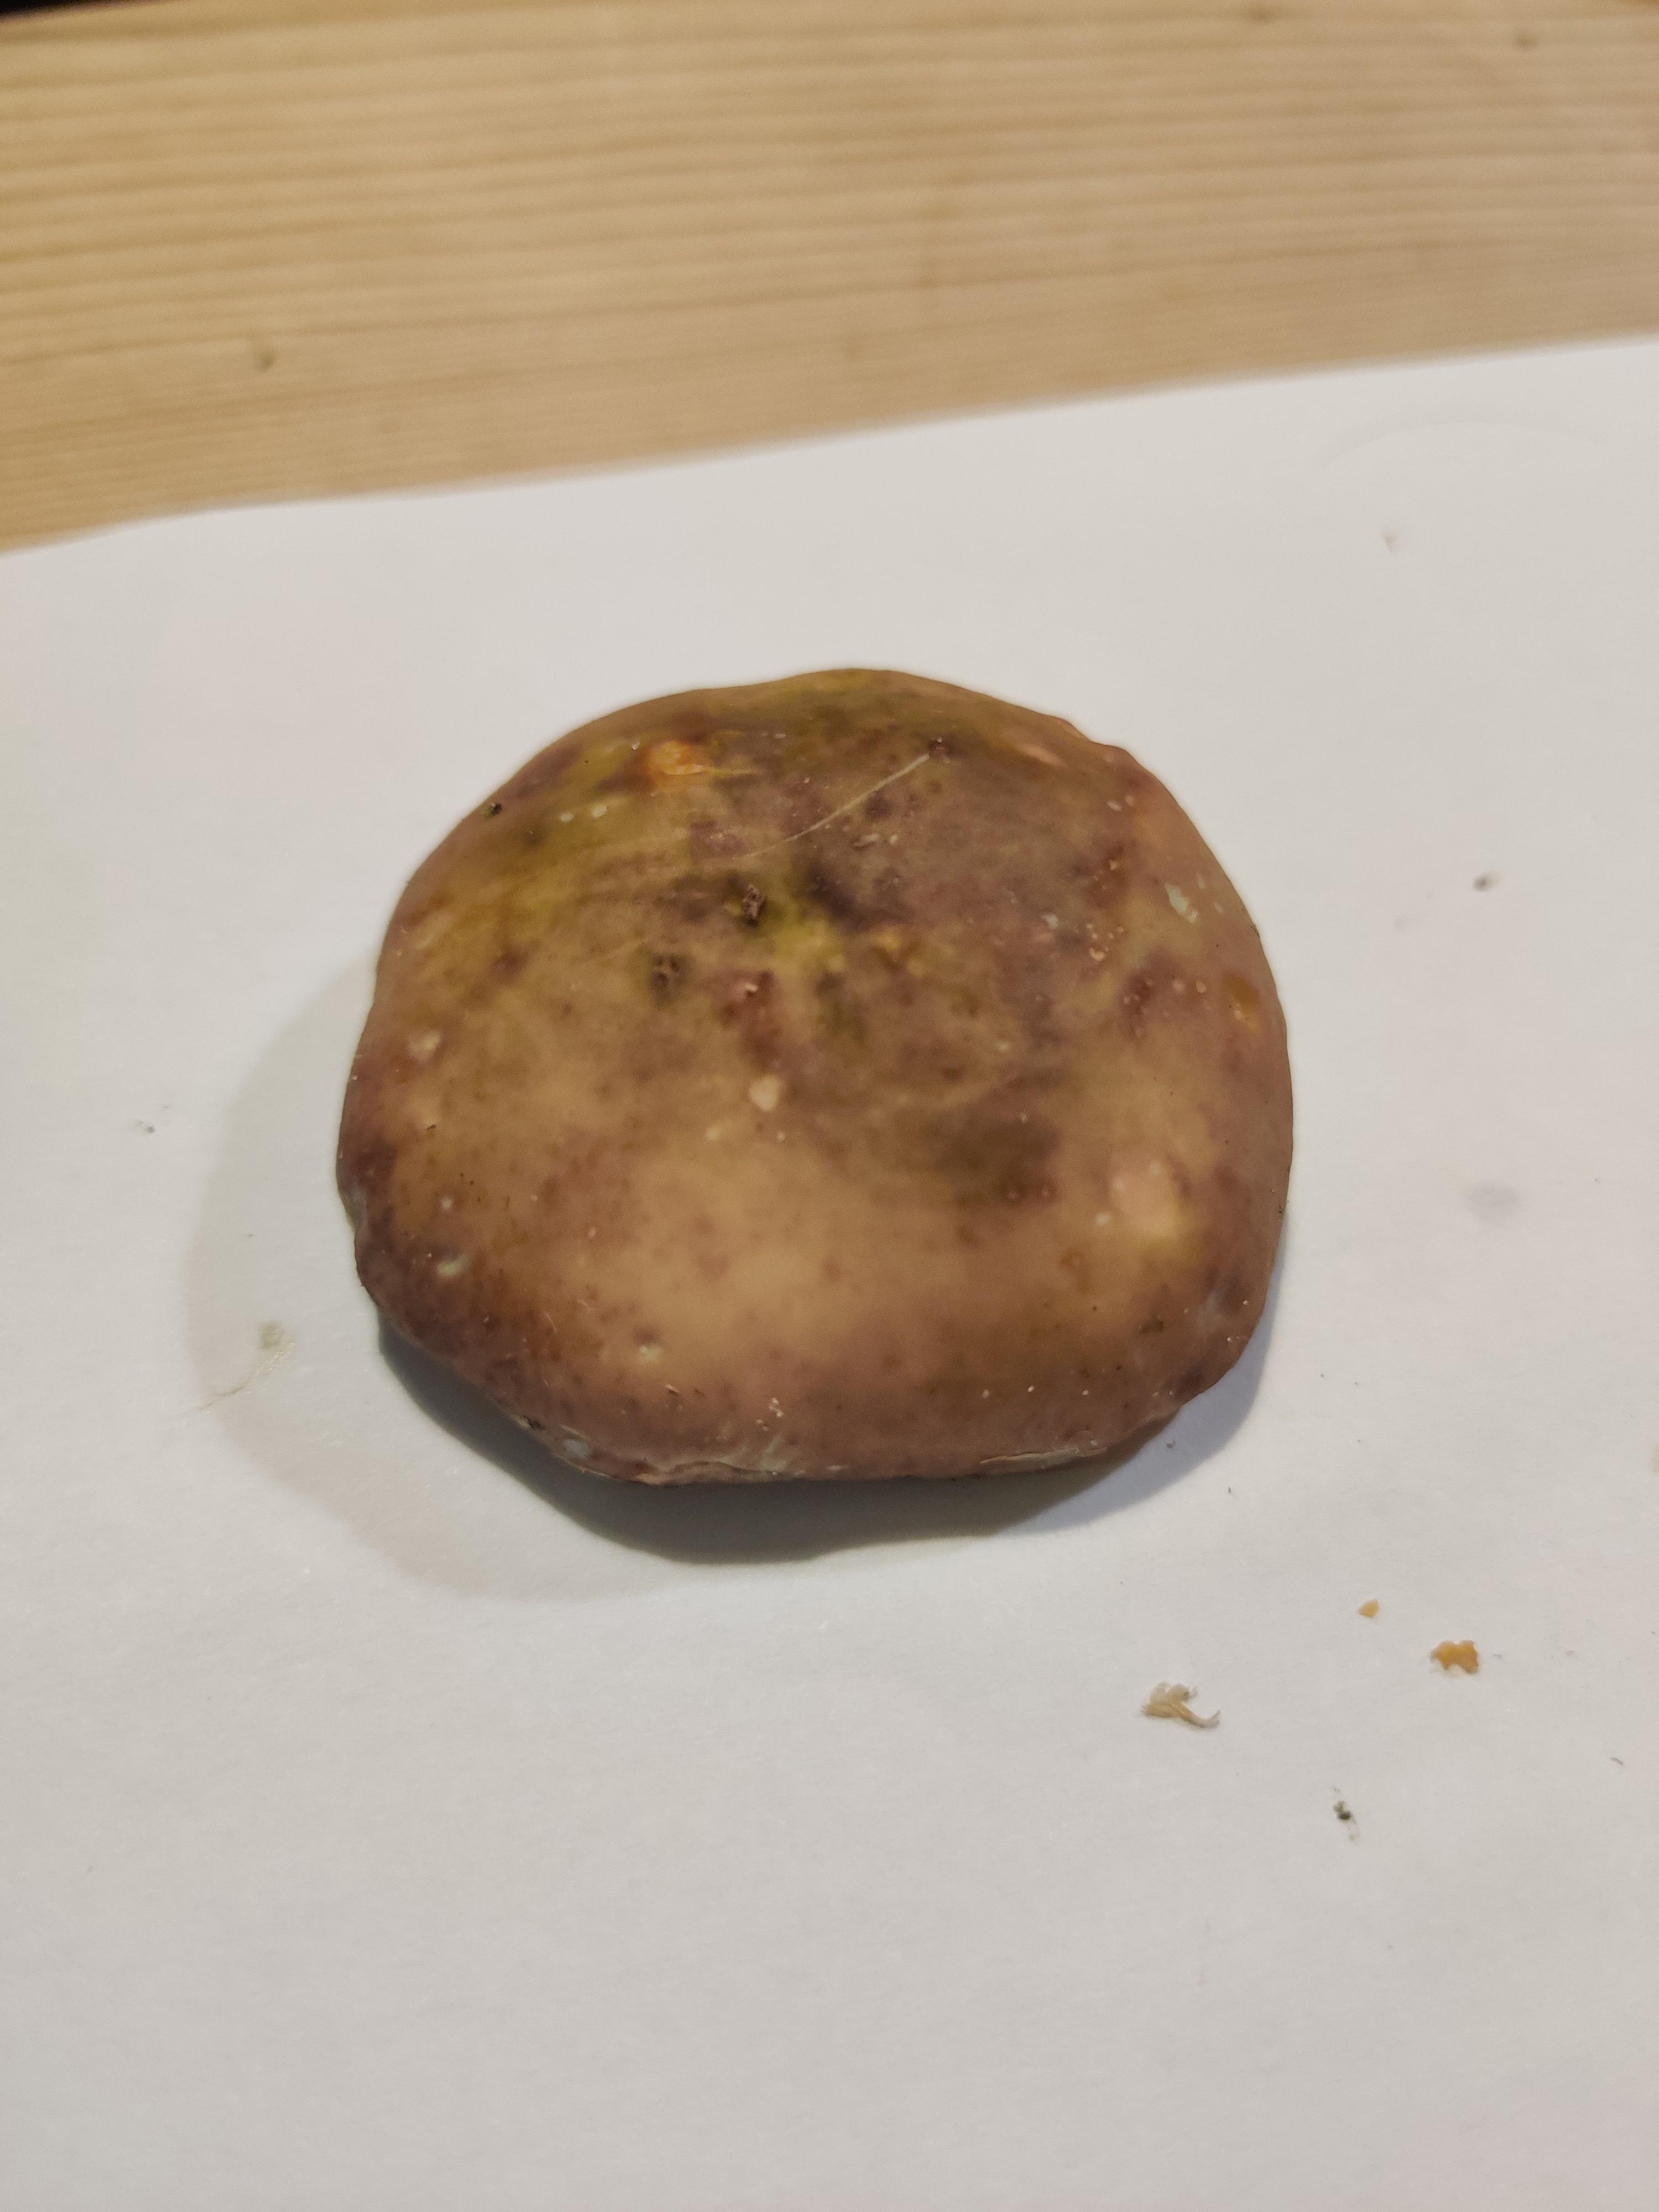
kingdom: Fungi
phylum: Basidiomycota
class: Agaricomycetes
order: Russulales
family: Russulaceae
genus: Russula
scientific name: Russula sardonia
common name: citronbladet skørhat
